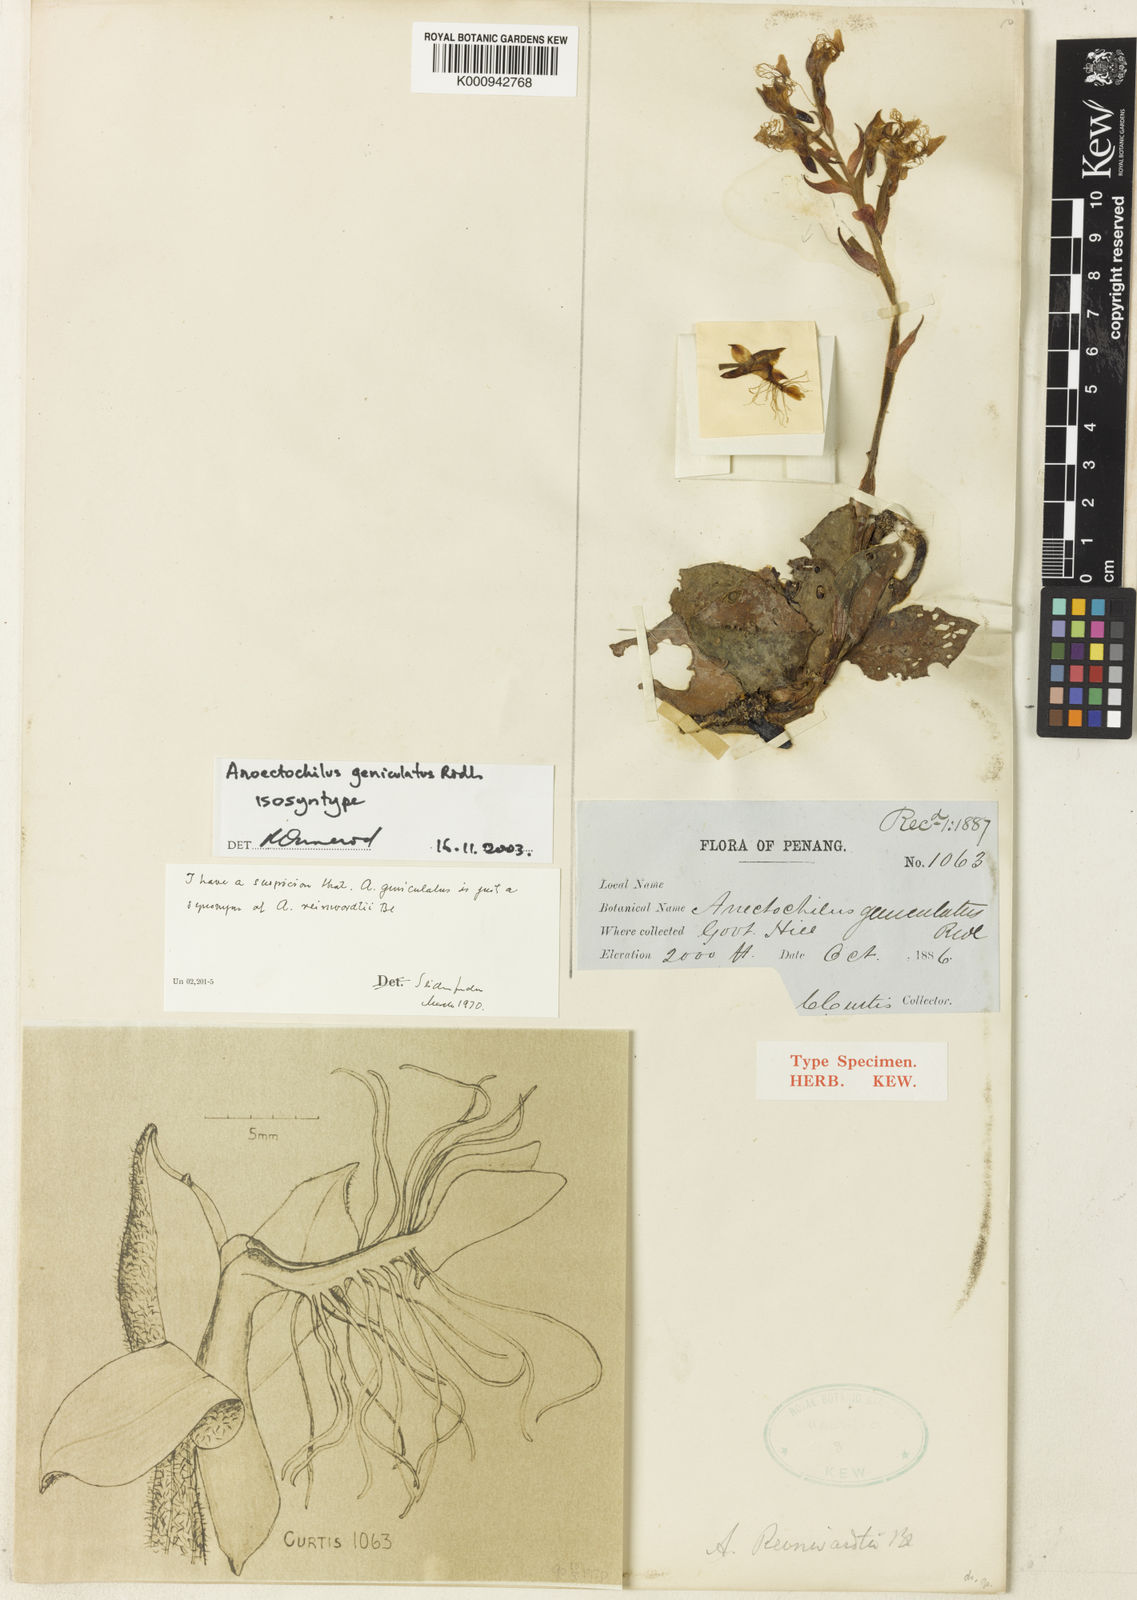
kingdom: Plantae
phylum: Tracheophyta
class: Liliopsida
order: Asparagales
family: Orchidaceae
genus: Anoectochilus
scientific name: Anoectochilus geniculatus
